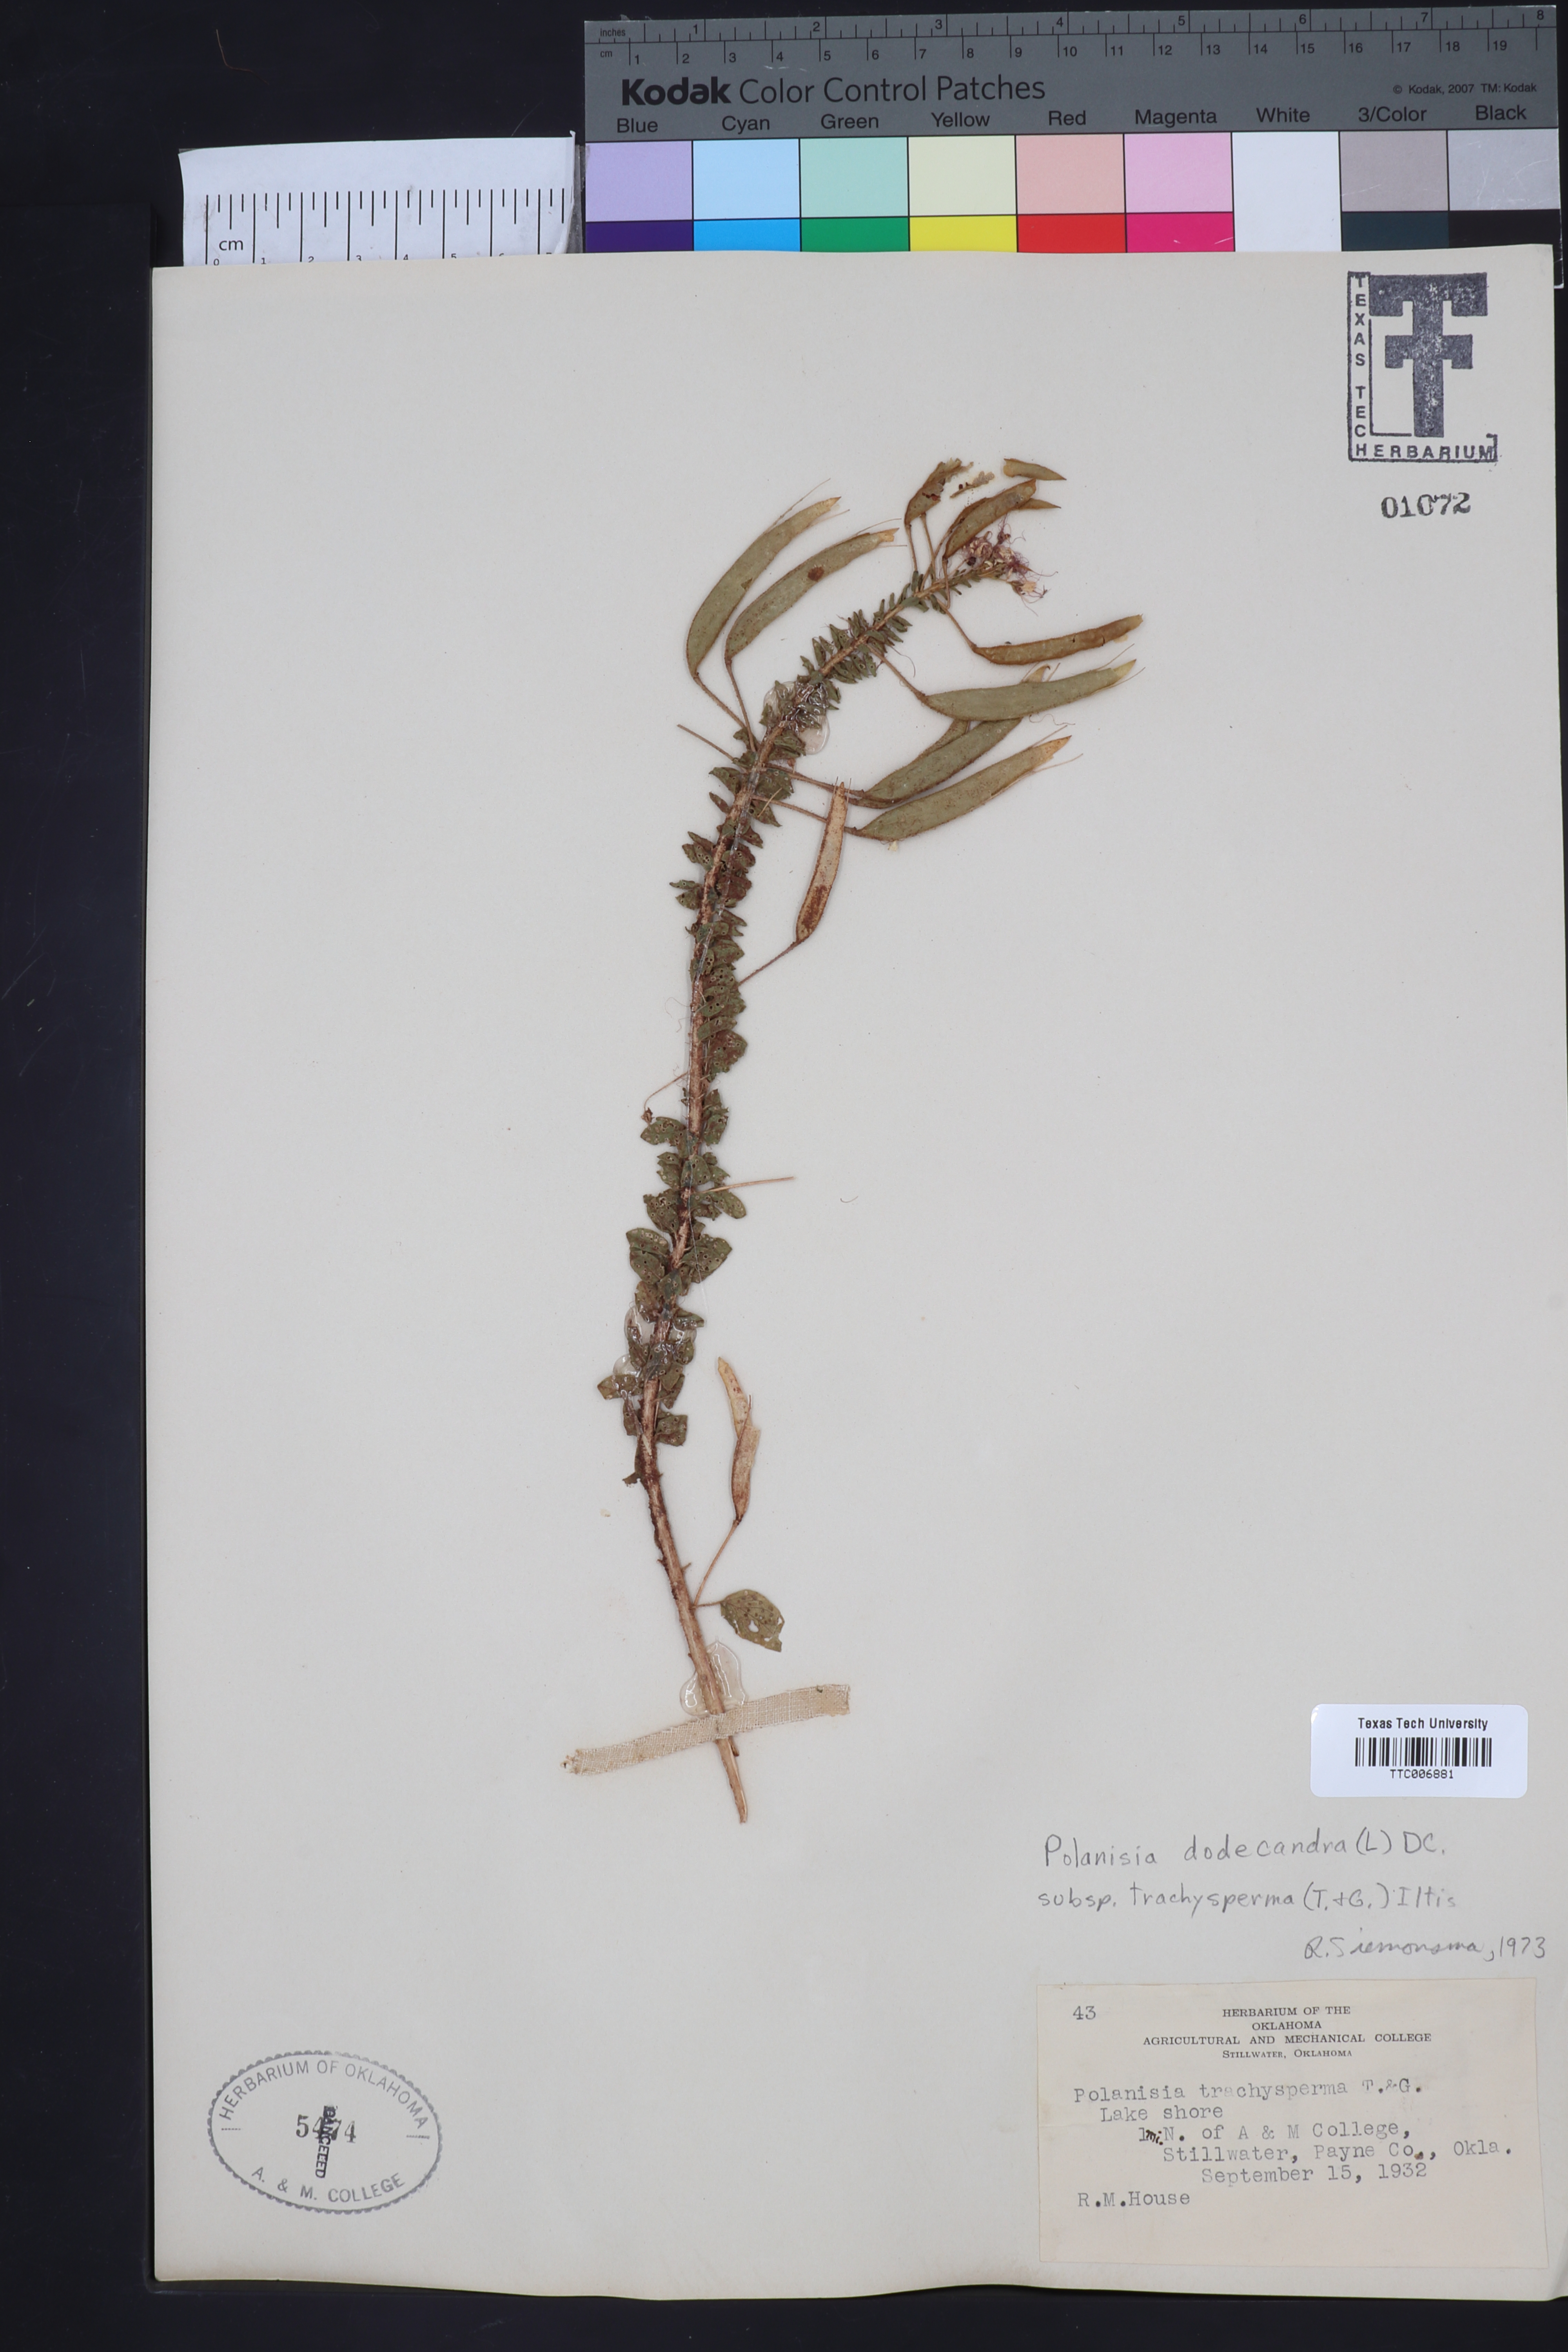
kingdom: Plantae
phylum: Tracheophyta
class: Magnoliopsida
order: Brassicales
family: Cleomaceae
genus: Polanisia
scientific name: Polanisia trachysperma
